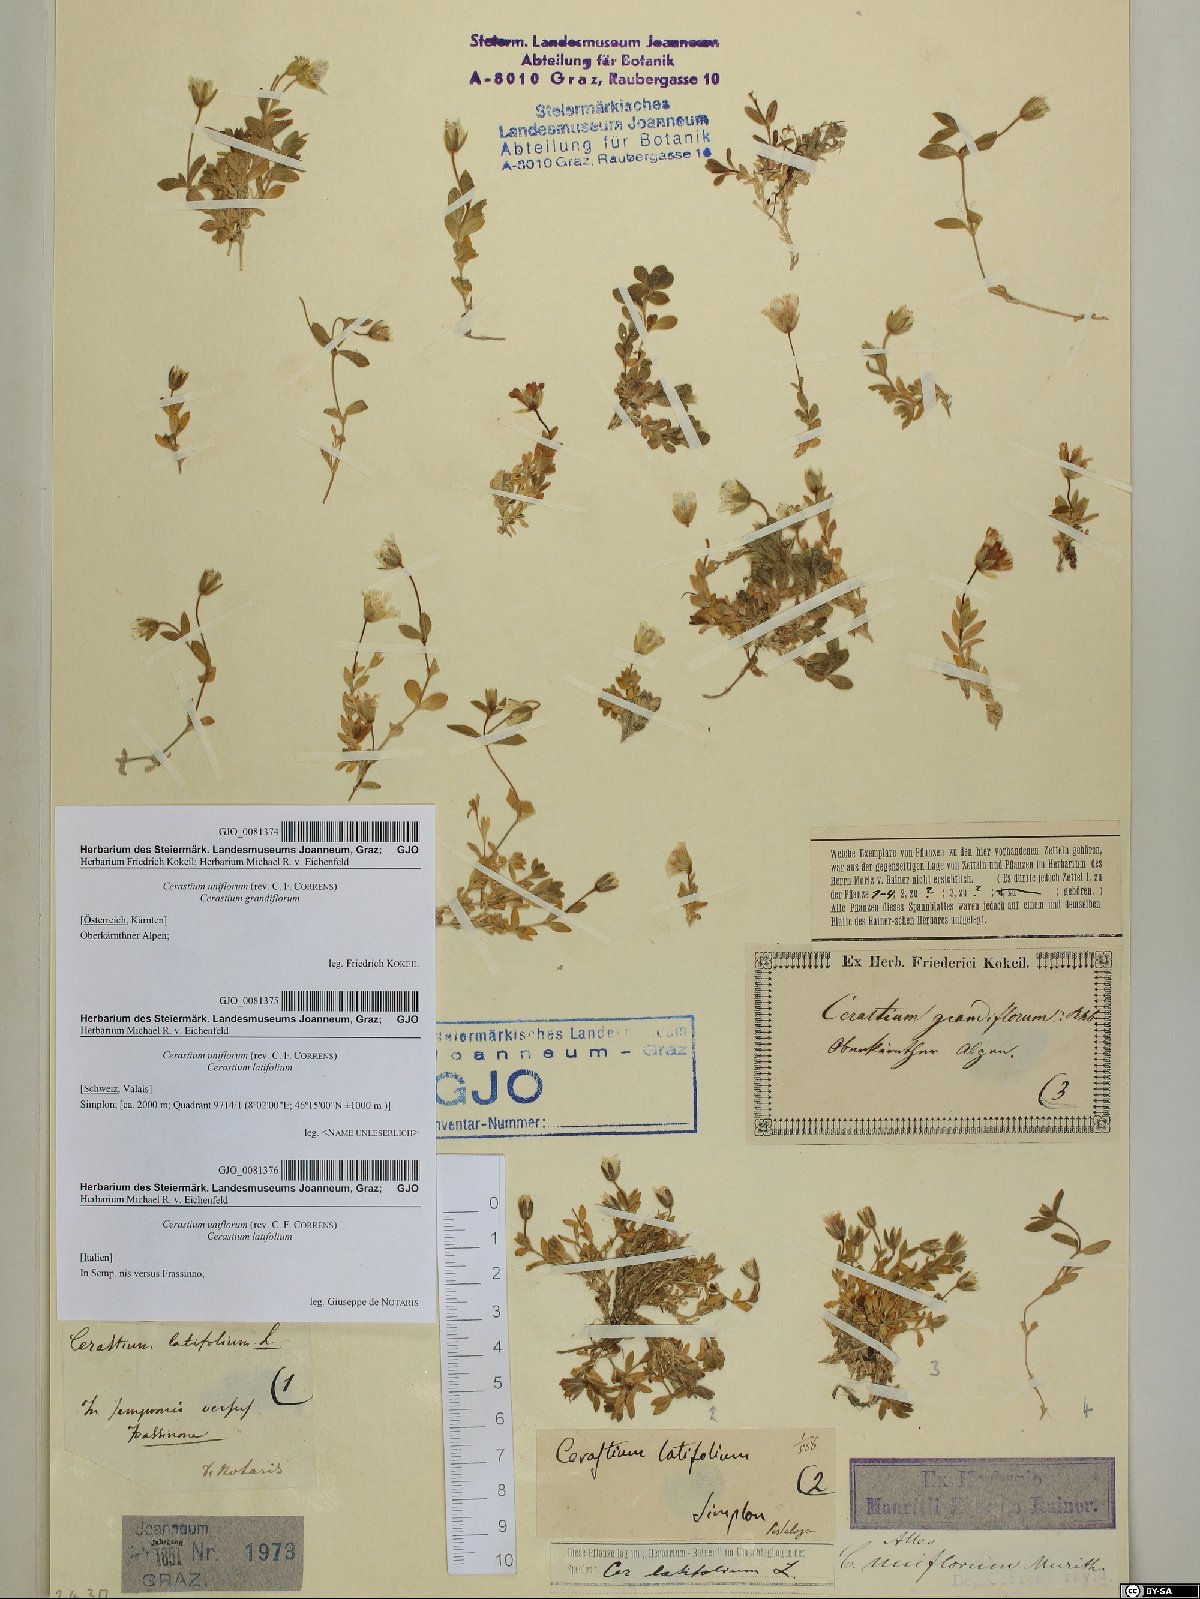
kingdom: Plantae
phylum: Tracheophyta
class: Magnoliopsida
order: Caryophyllales
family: Caryophyllaceae
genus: Cerastium
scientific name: Cerastium uniflorum
